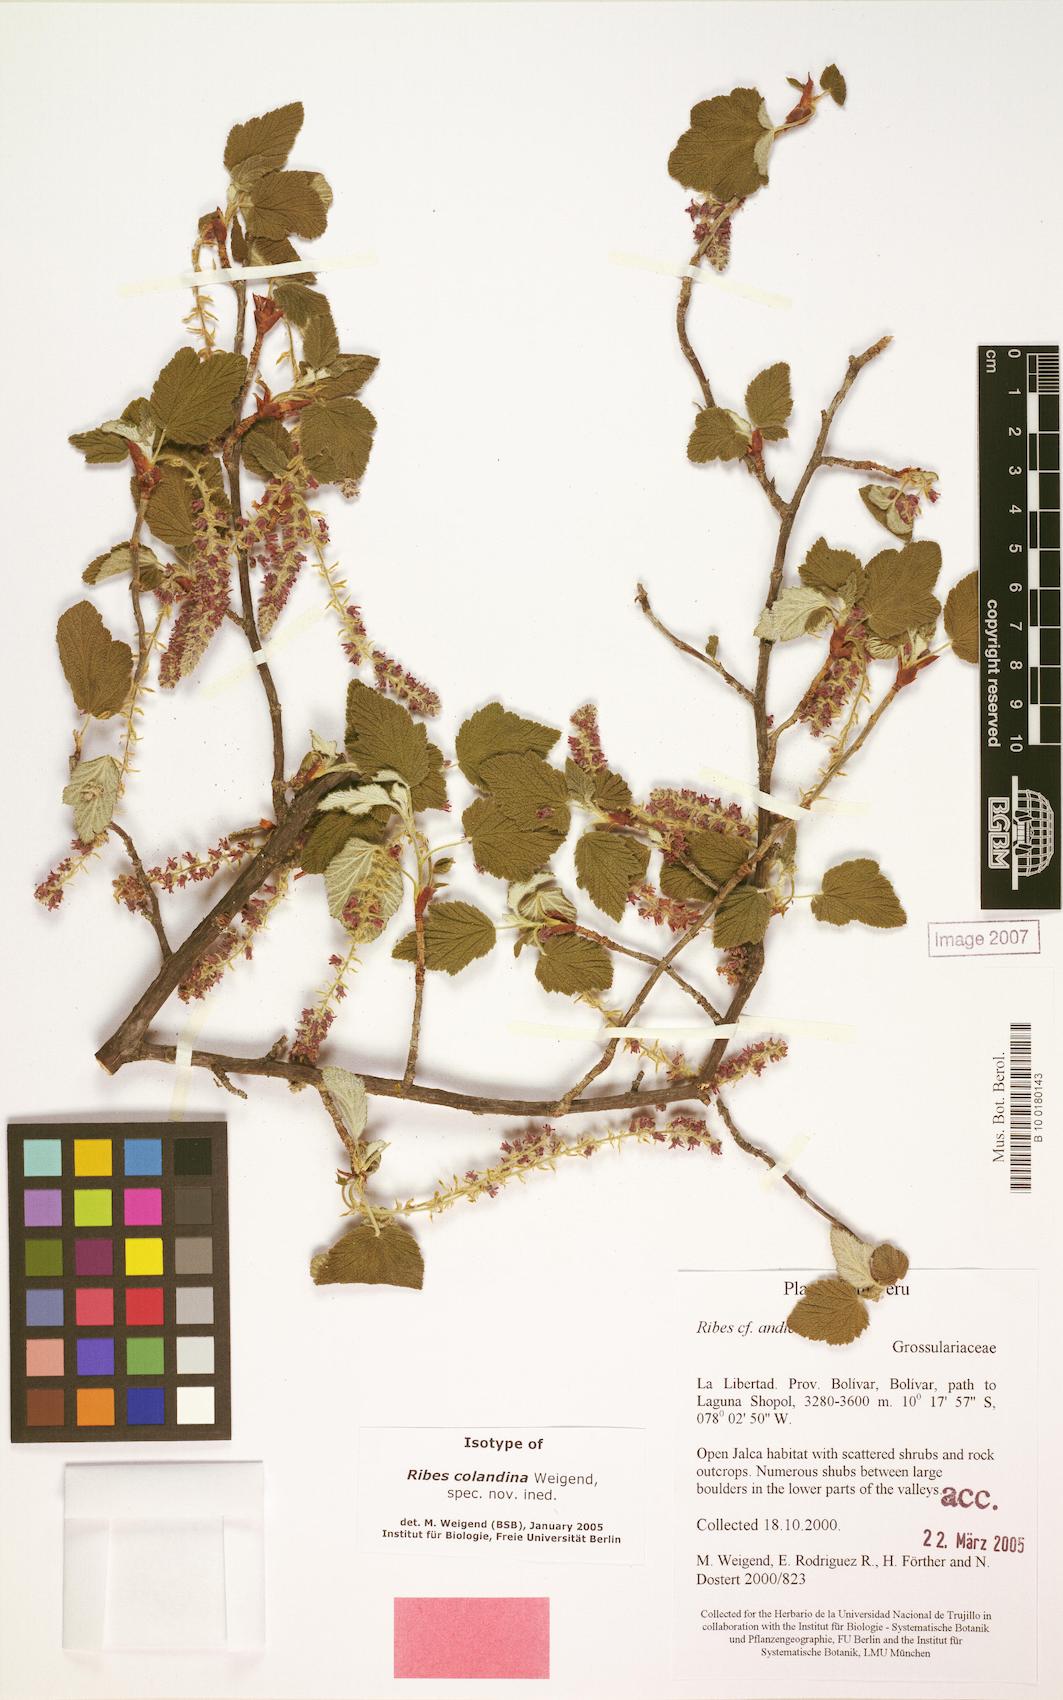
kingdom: Plantae
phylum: Tracheophyta
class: Magnoliopsida
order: Saxifragales
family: Grossulariaceae
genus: Ribes
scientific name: Ribes colandina
